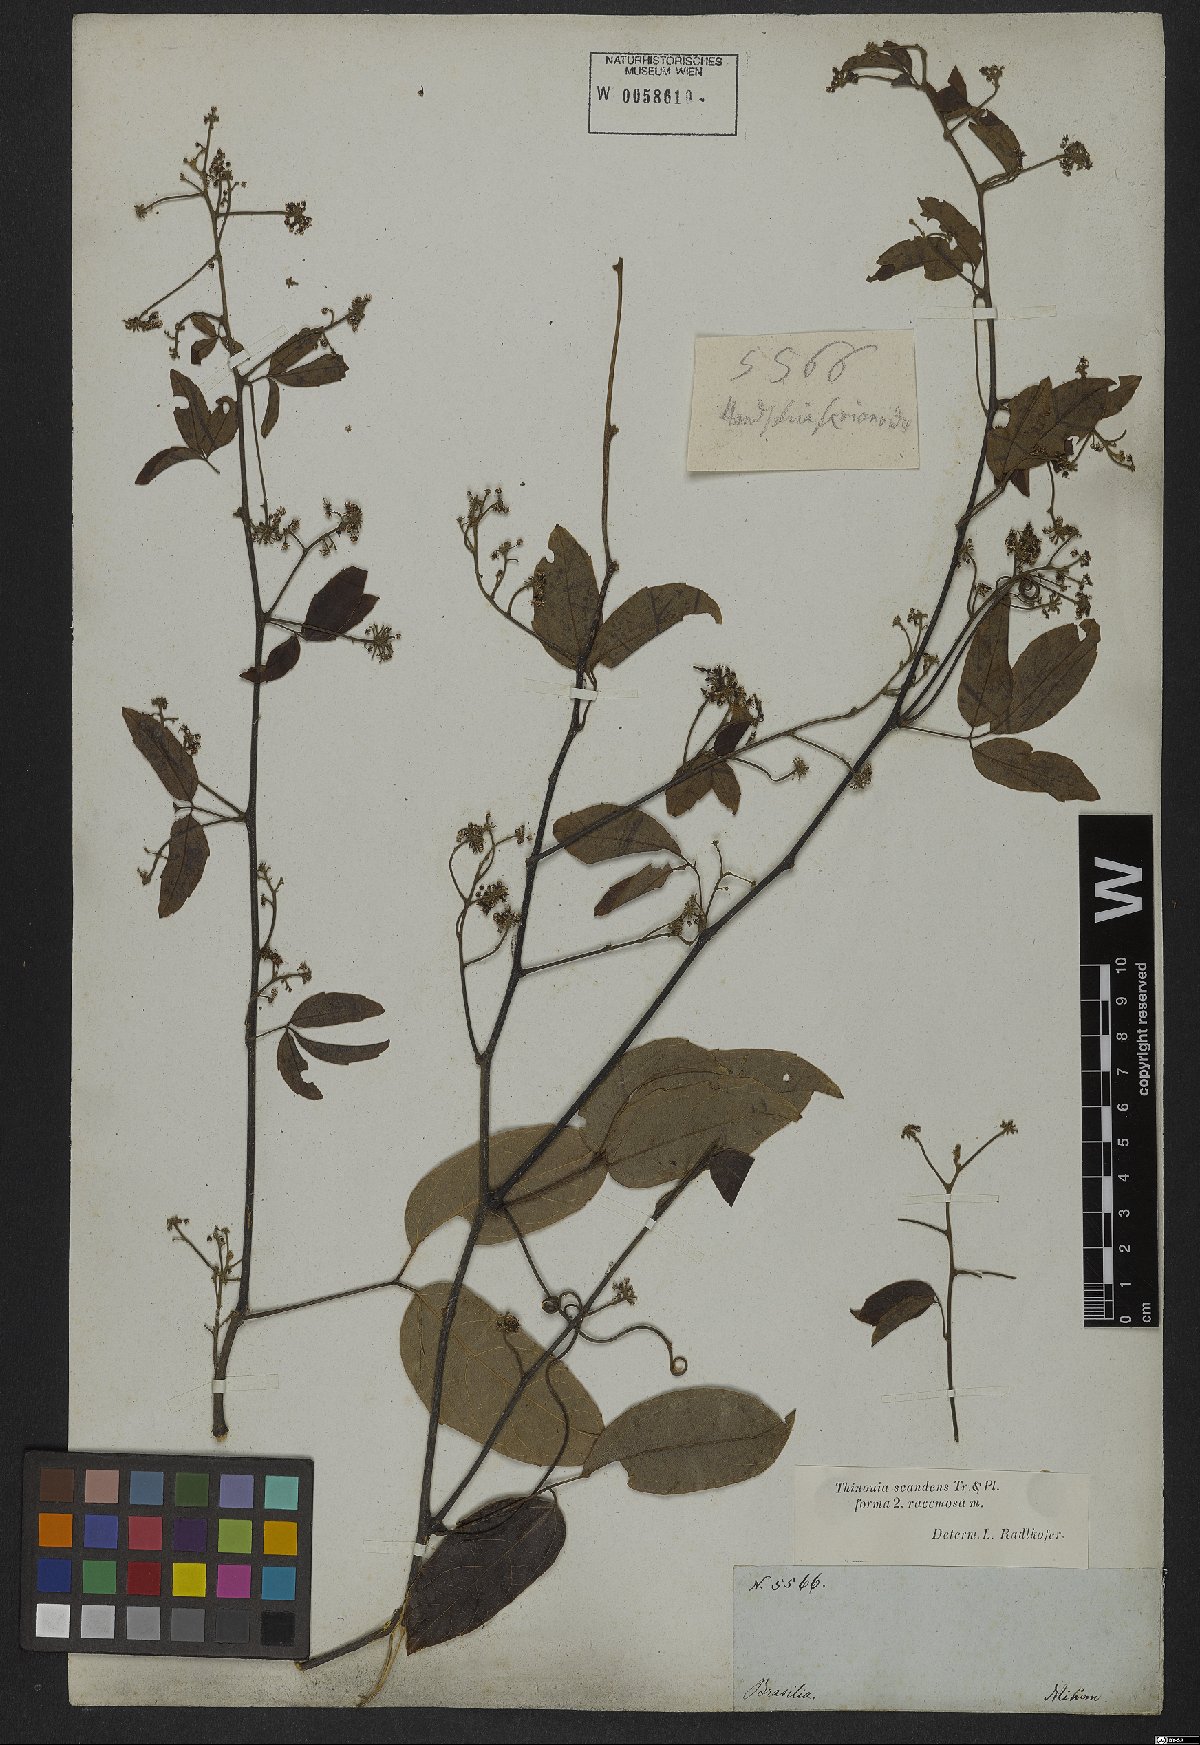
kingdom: Plantae
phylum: Tracheophyta
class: Magnoliopsida
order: Sapindales
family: Sapindaceae
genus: Thinouia
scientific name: Thinouia scandens
